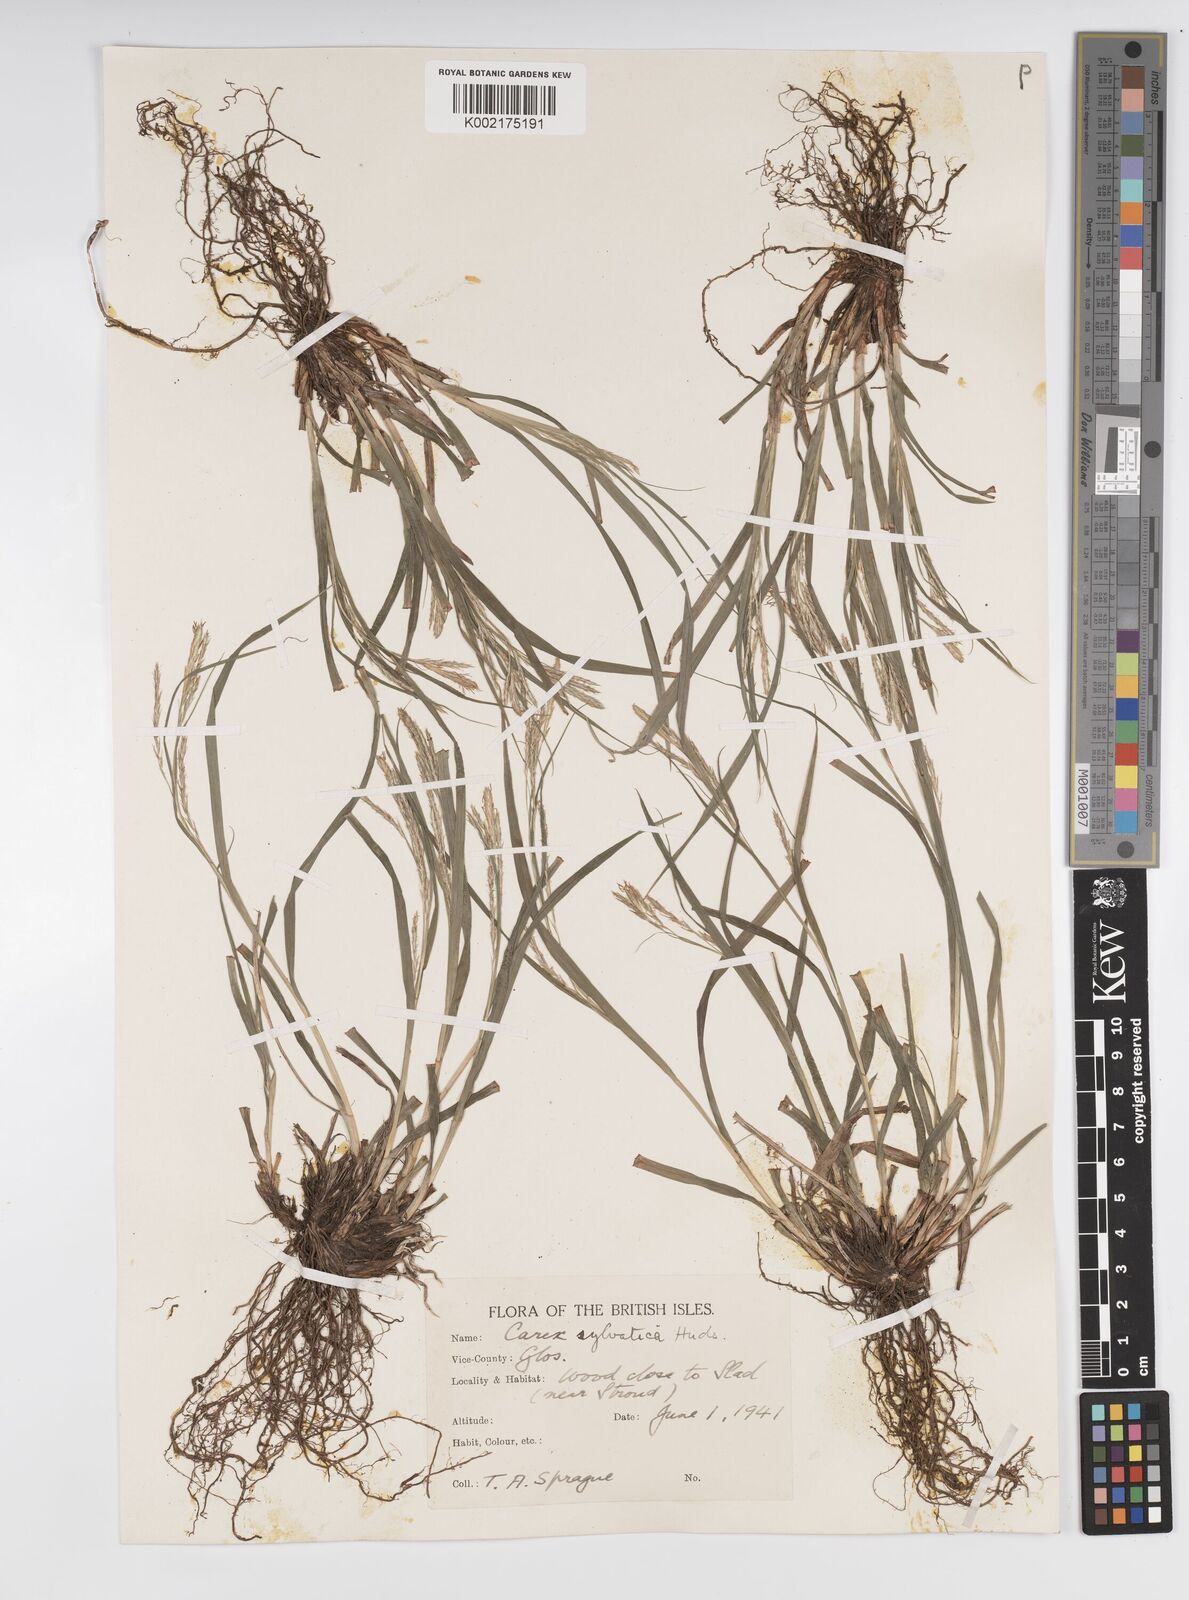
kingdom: Plantae
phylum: Tracheophyta
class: Liliopsida
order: Poales
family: Cyperaceae
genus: Carex
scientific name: Carex sylvatica
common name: Wood-sedge
